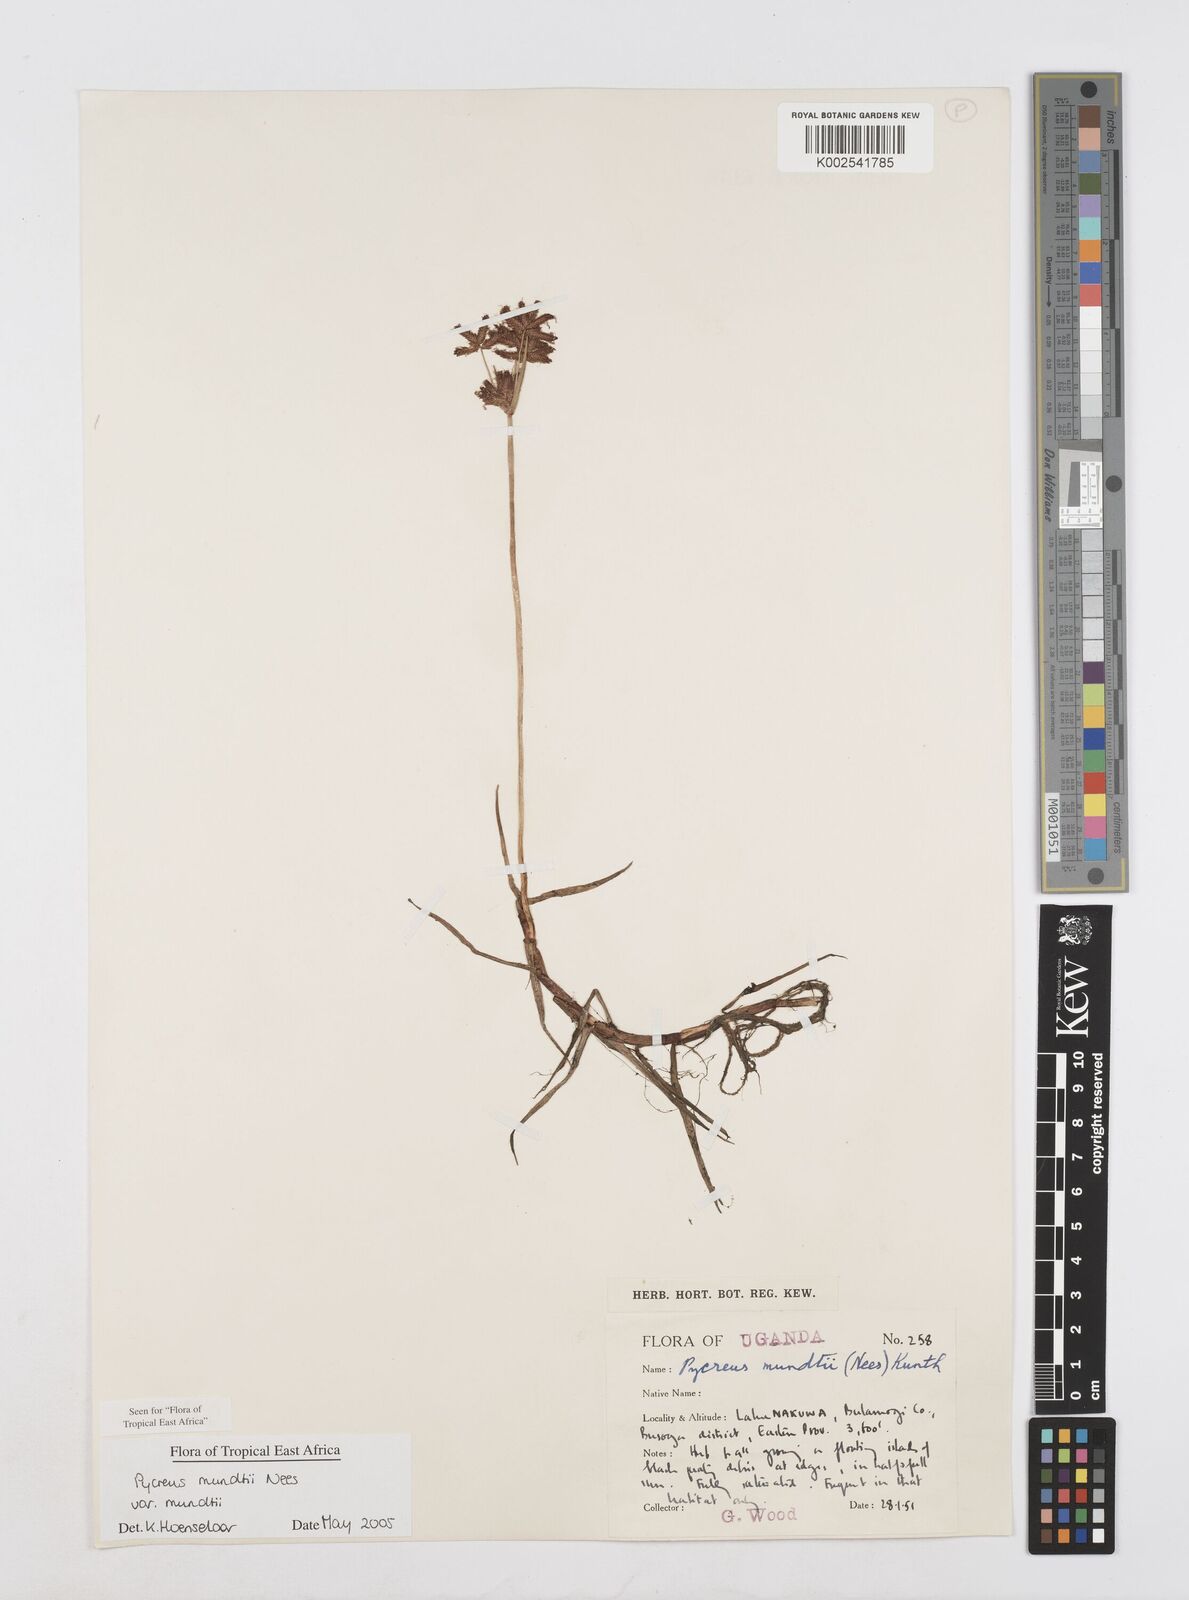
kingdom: Plantae
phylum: Tracheophyta
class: Liliopsida
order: Poales
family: Cyperaceae
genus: Cyperus
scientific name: Cyperus mundii
